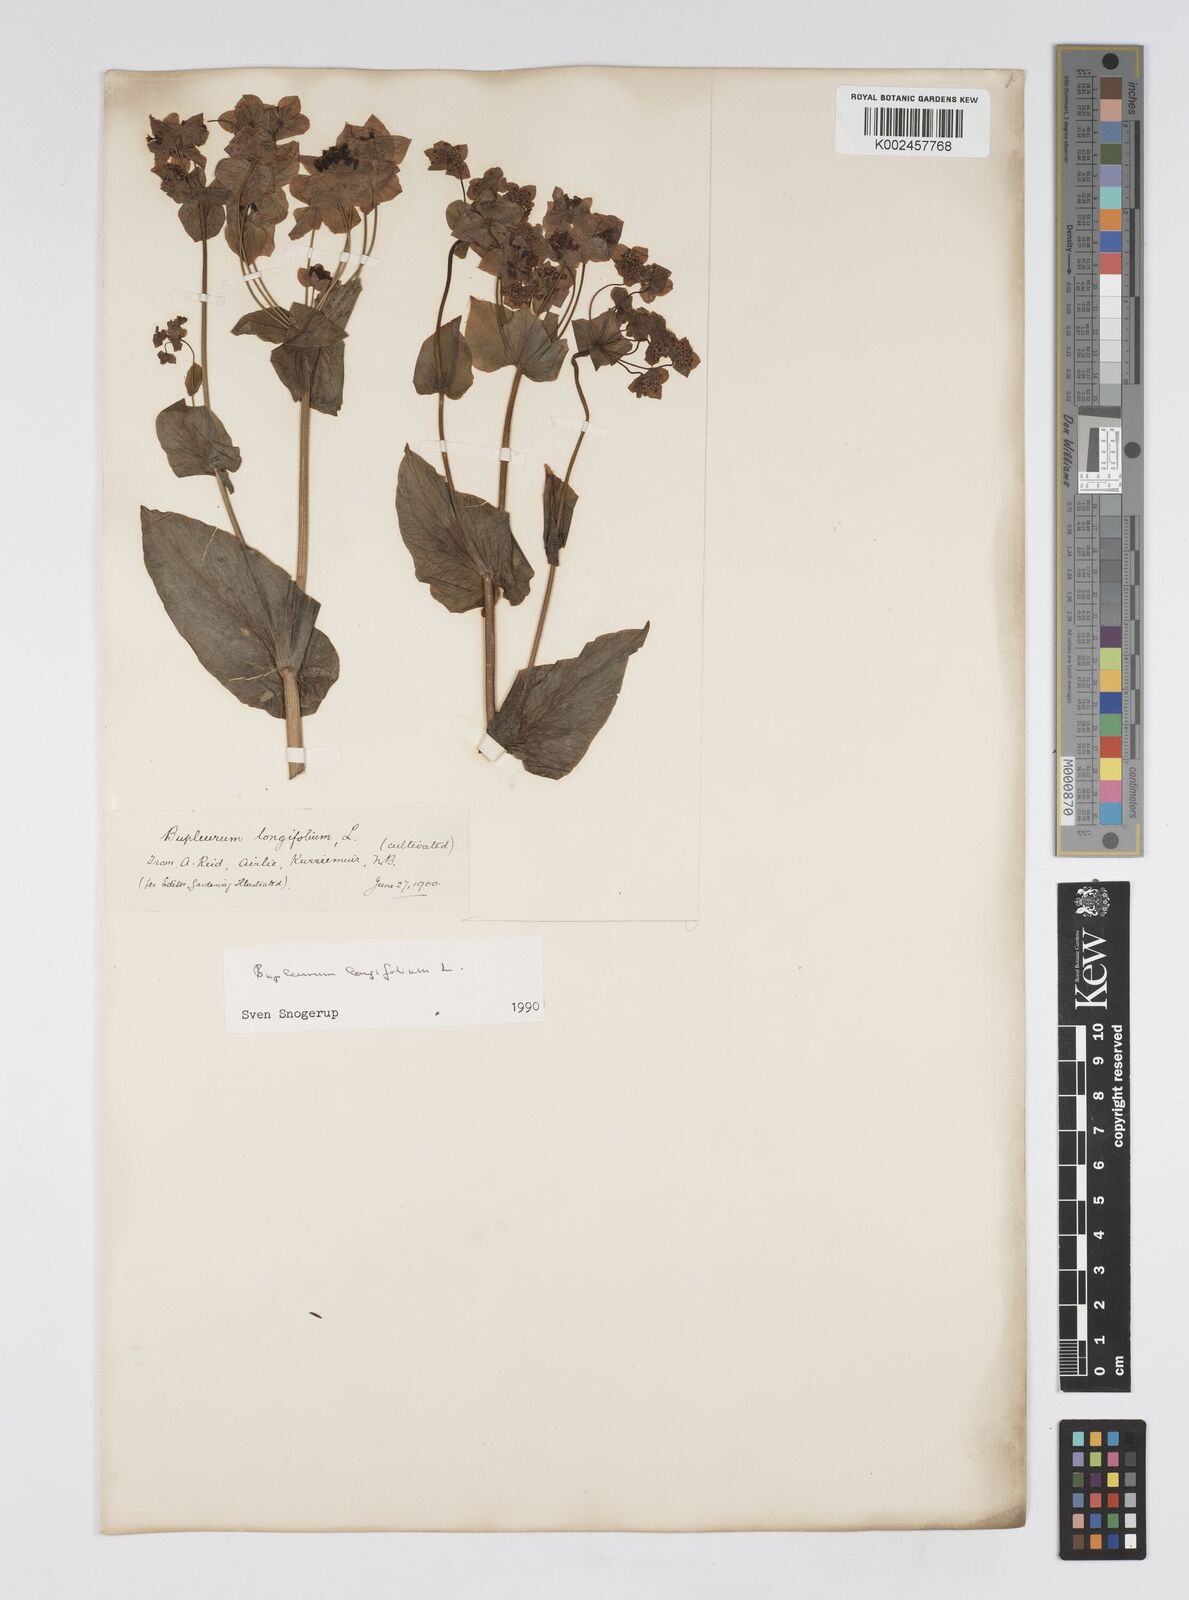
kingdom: Plantae
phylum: Tracheophyta
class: Magnoliopsida
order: Apiales
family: Apiaceae
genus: Bupleurum
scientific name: Bupleurum longifolium
